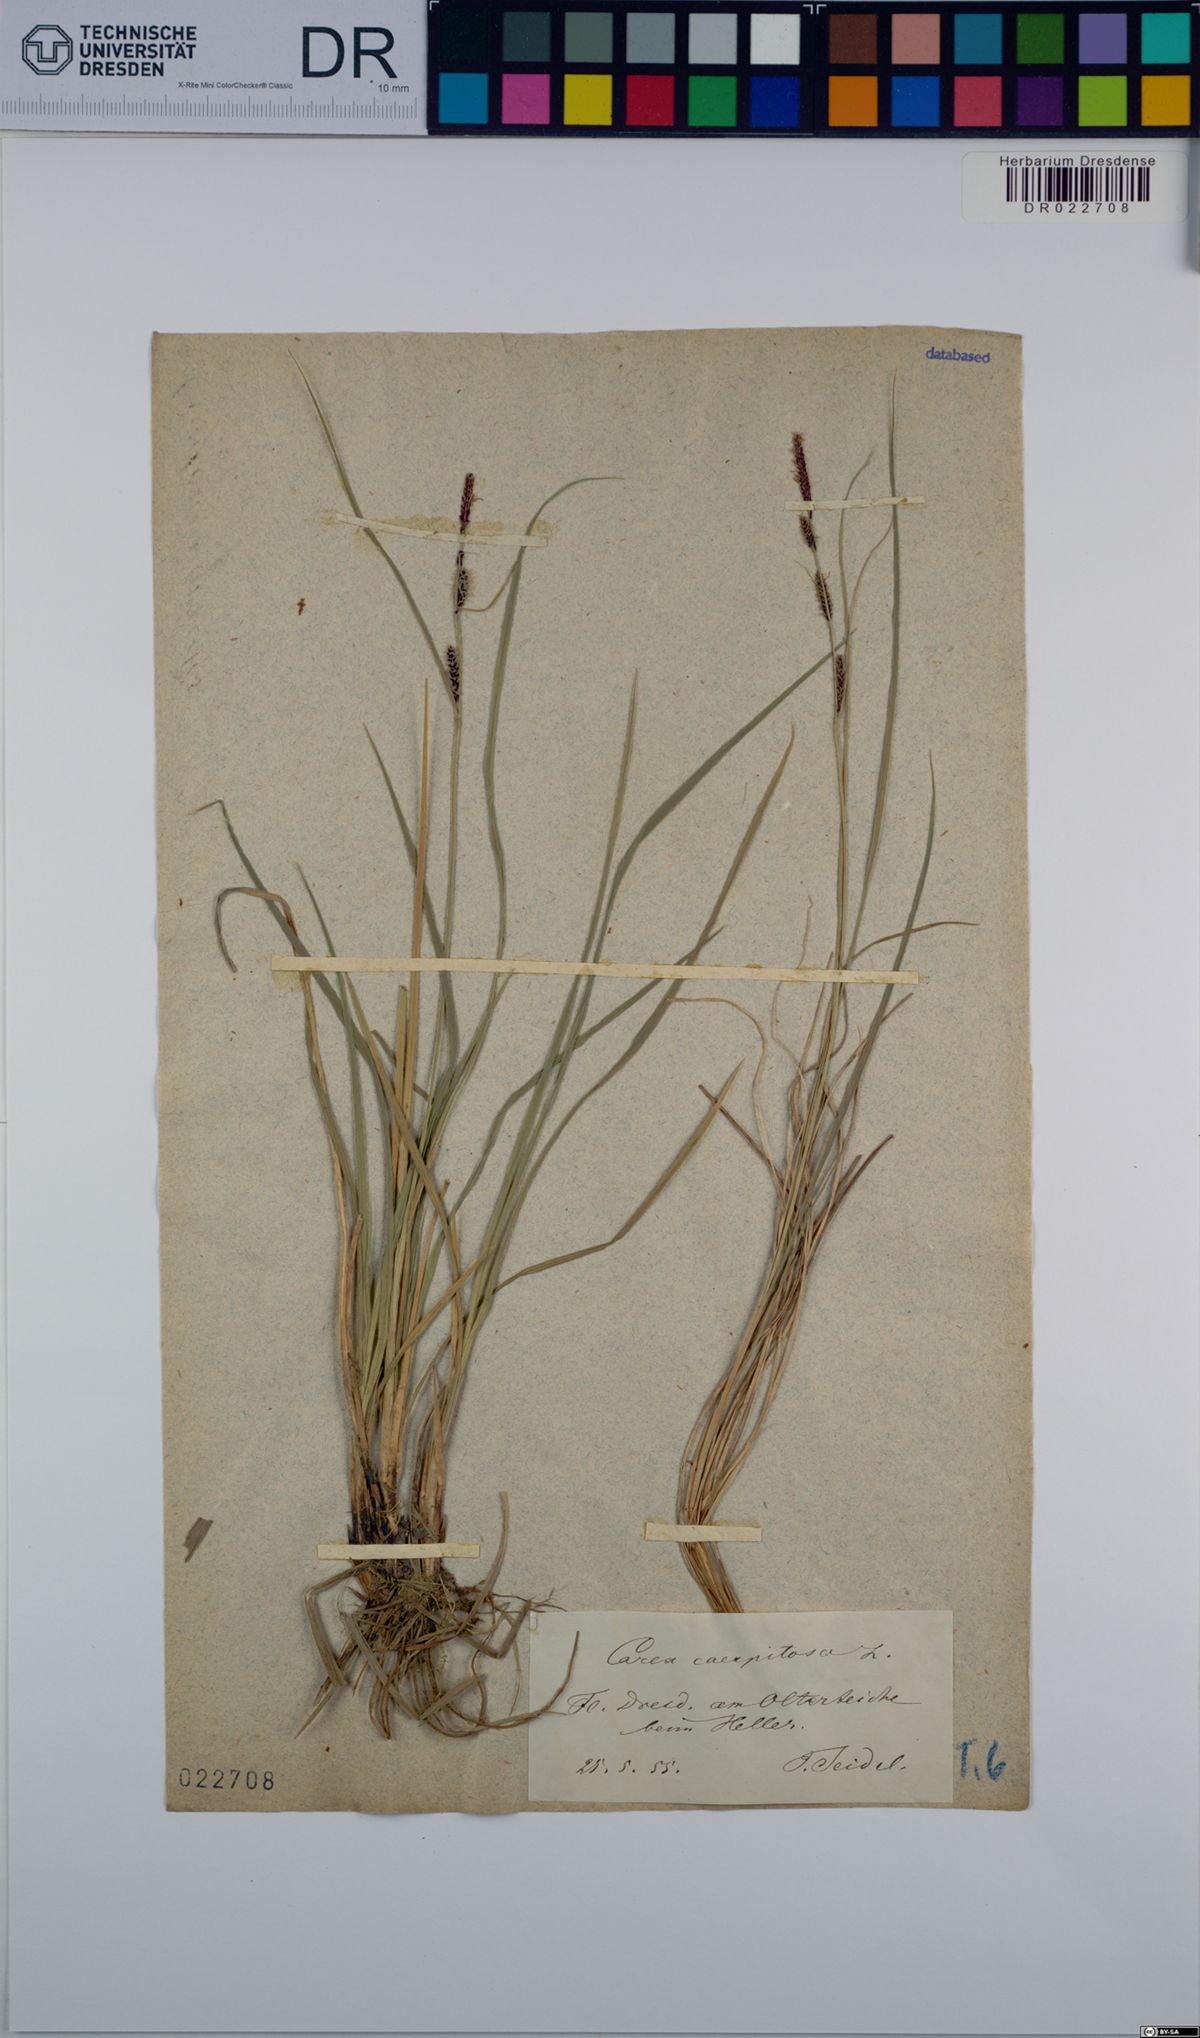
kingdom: Plantae
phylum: Tracheophyta
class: Liliopsida
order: Poales
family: Cyperaceae
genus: Carex
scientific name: Carex cespitosa
